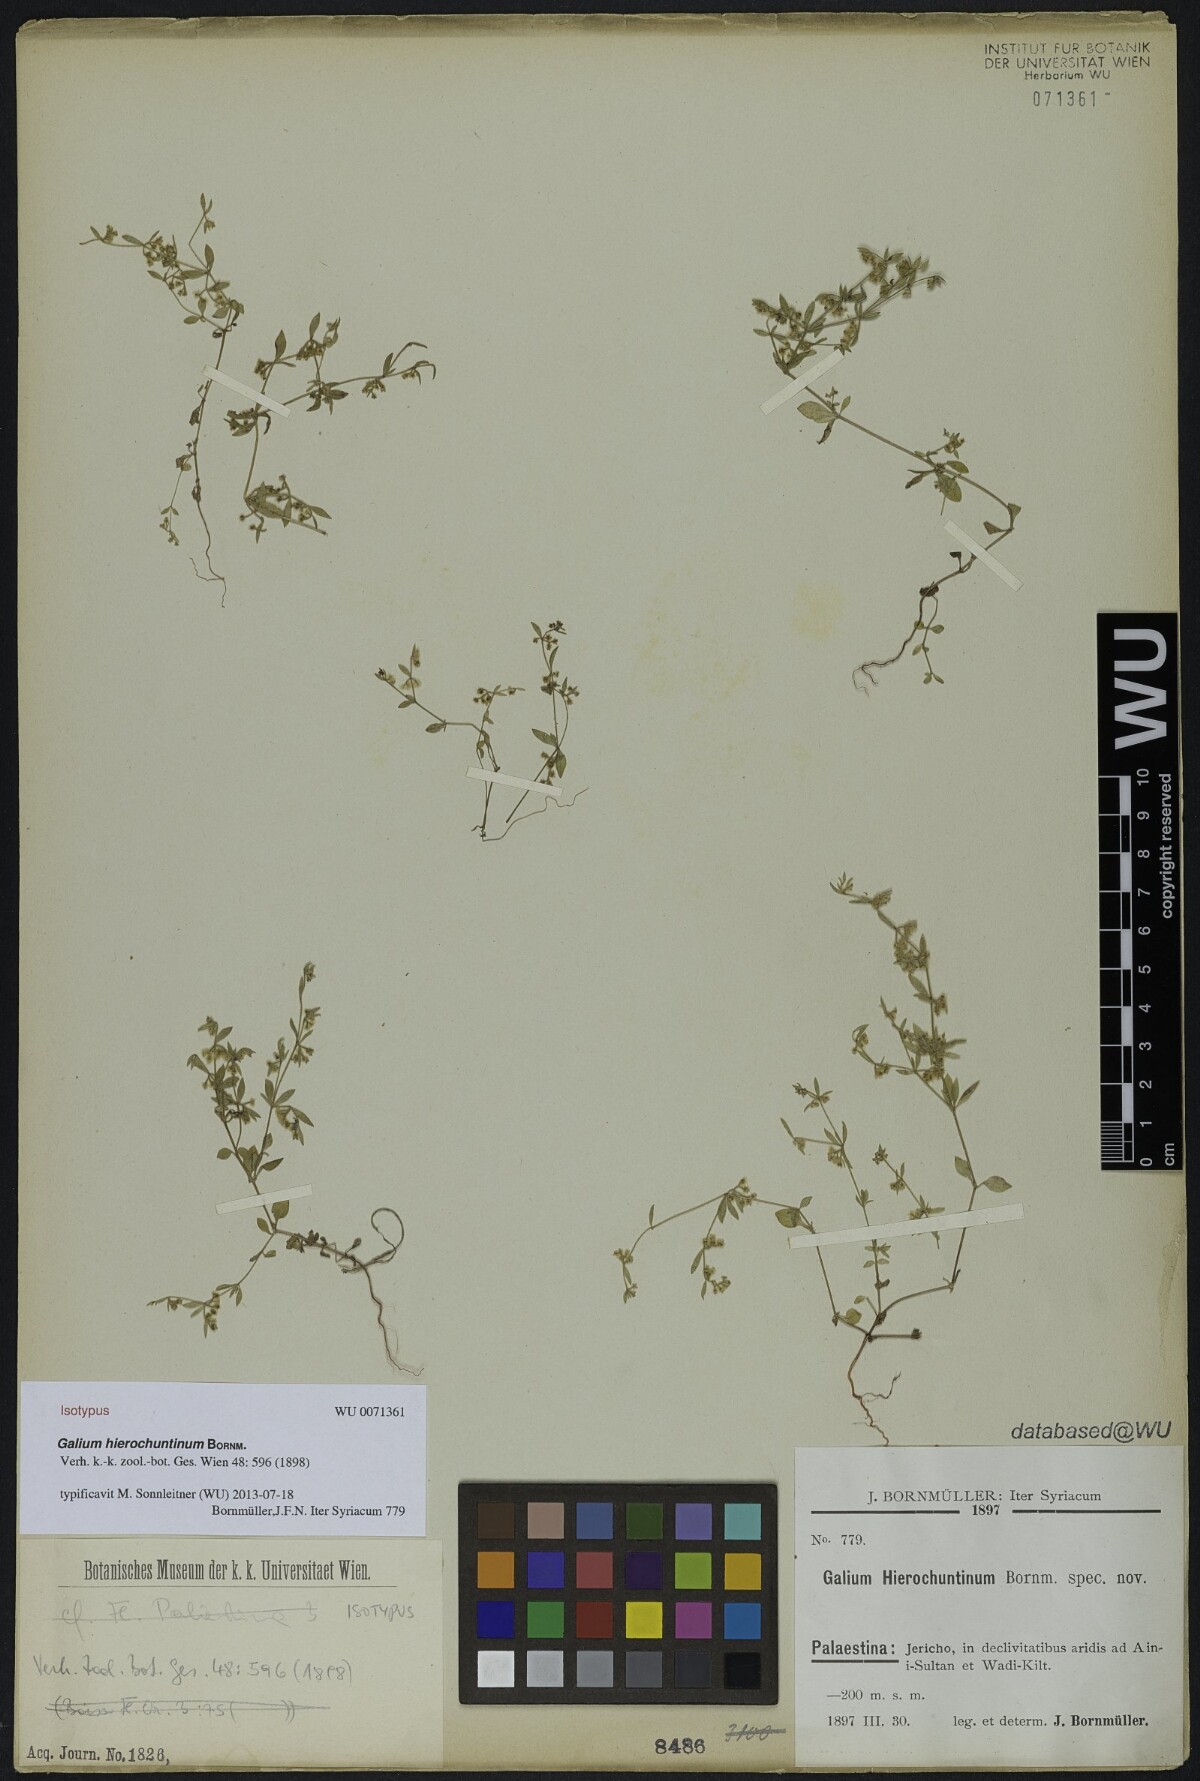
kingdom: Plantae
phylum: Tracheophyta
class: Magnoliopsida
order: Gentianales
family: Rubiaceae
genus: Galium
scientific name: Galium hierochuntinum
